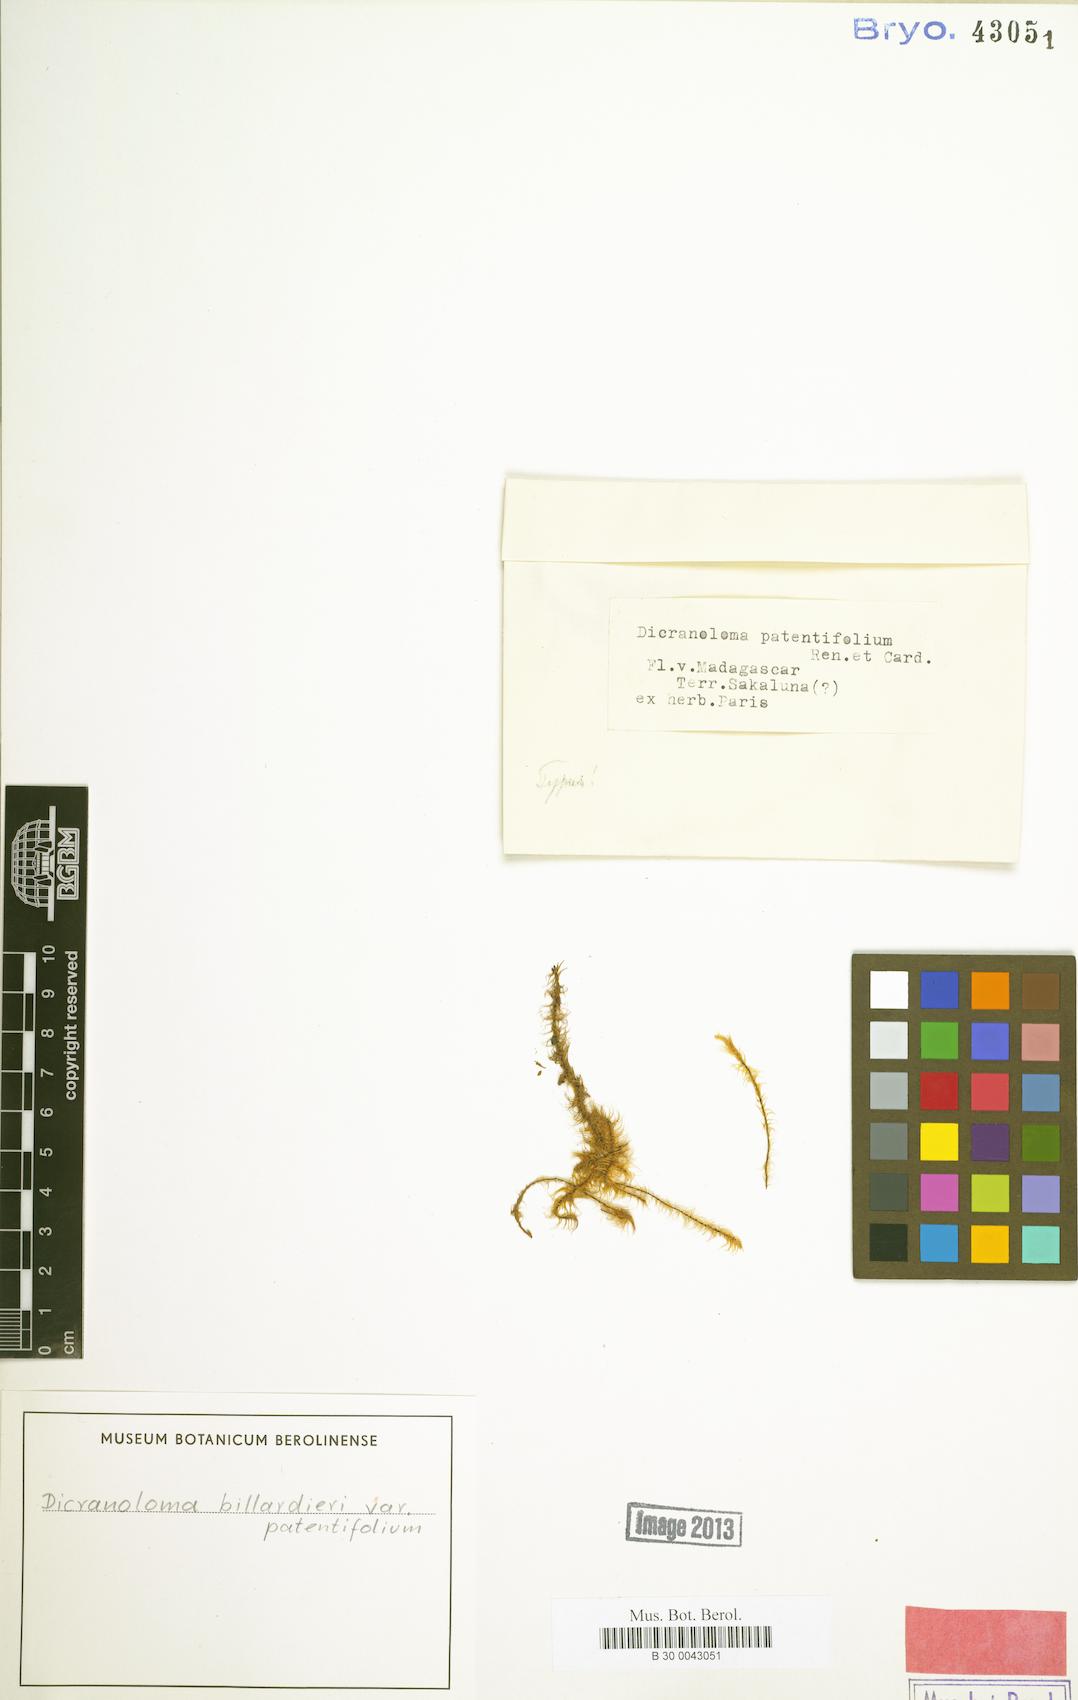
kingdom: Plantae
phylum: Bryophyta
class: Bryopsida
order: Dicranales
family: Dicranaceae
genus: Dicranoloma
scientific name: Dicranoloma billardieri
